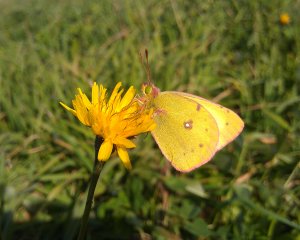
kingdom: Animalia
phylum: Arthropoda
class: Insecta
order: Lepidoptera
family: Pieridae
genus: Colias
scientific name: Colias philodice
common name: Clouded Sulphur
